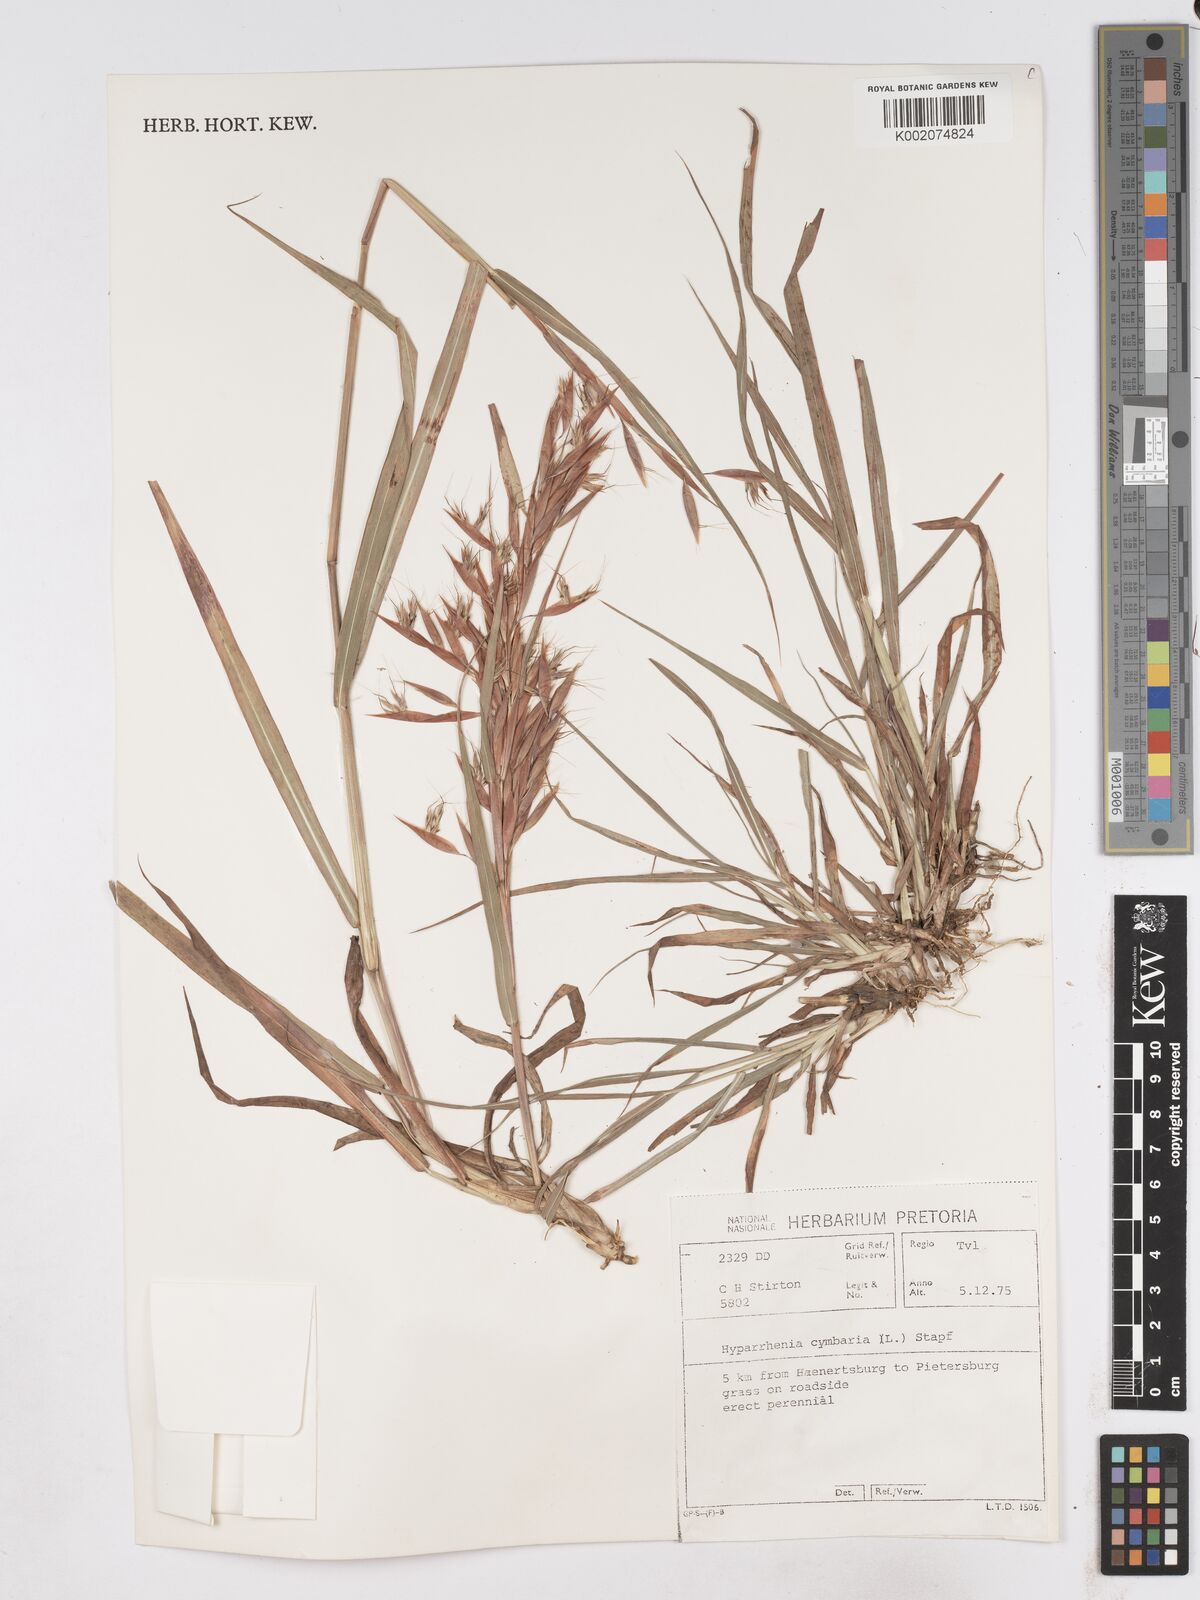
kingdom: Plantae
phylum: Tracheophyta
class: Liliopsida
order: Poales
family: Poaceae
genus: Hyparrhenia
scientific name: Hyparrhenia cymbaria
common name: Boat thatching grass
